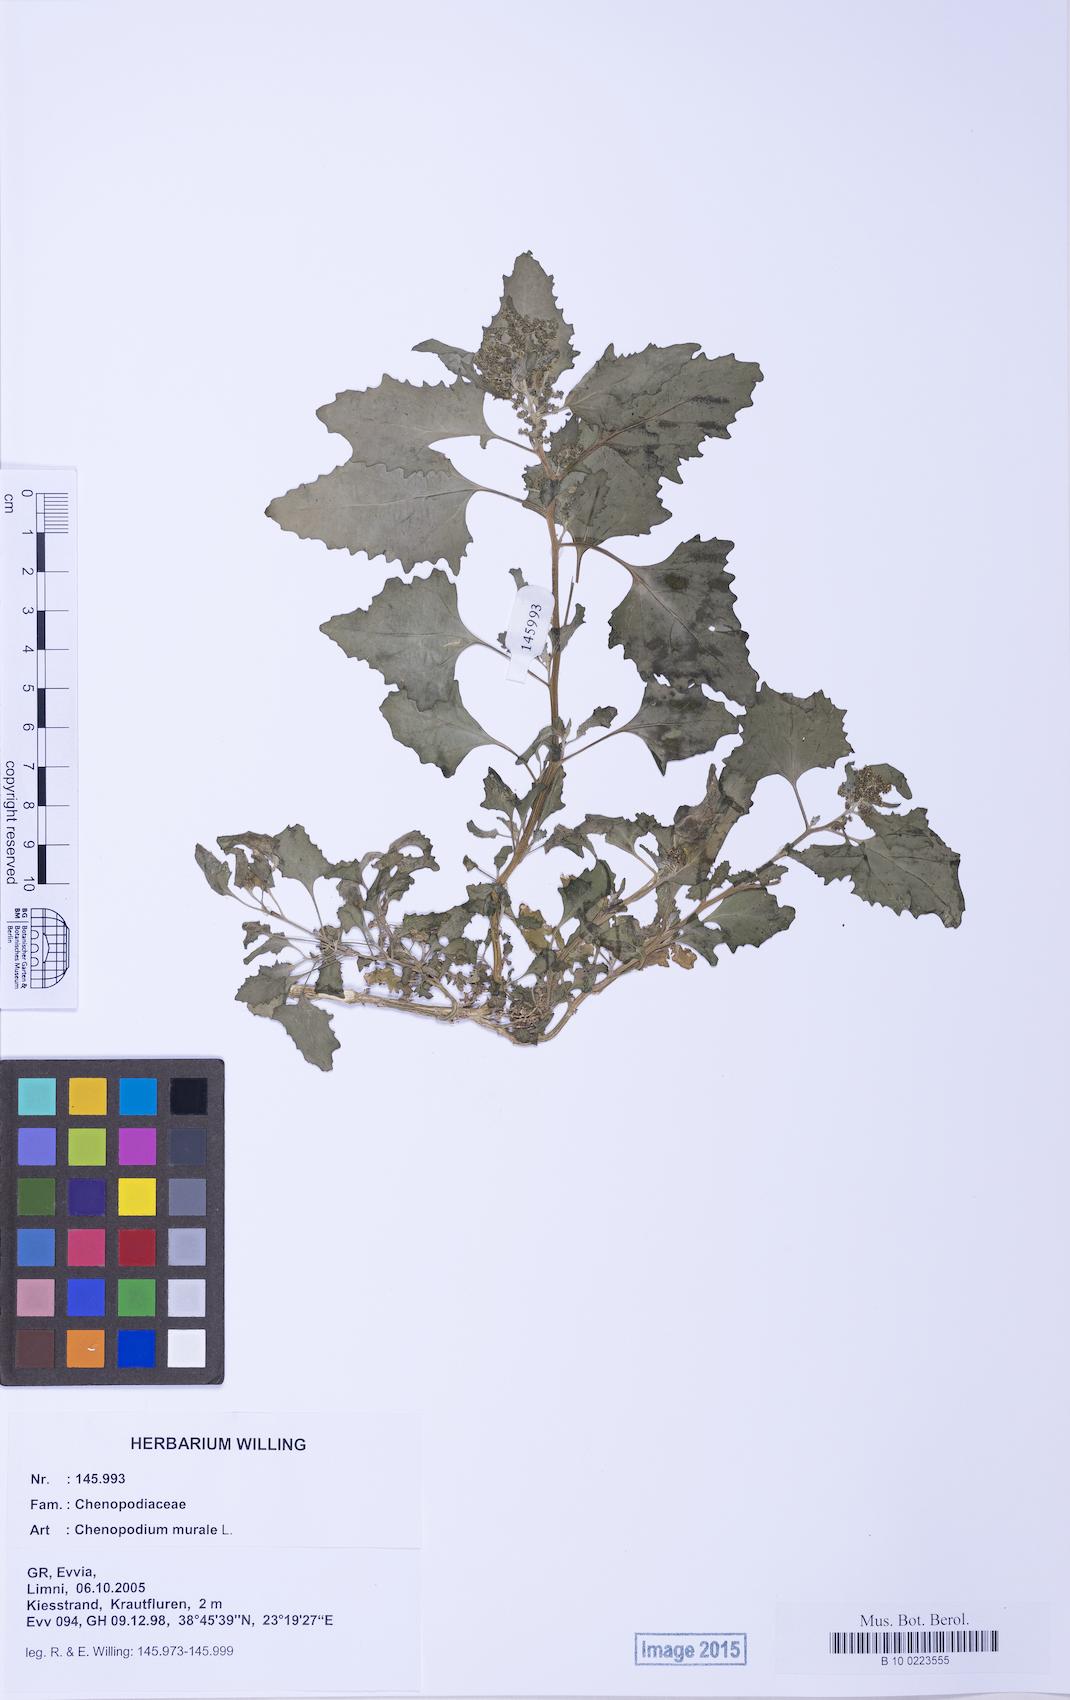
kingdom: Plantae
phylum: Tracheophyta
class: Magnoliopsida
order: Caryophyllales
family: Amaranthaceae
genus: Chenopodiastrum
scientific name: Chenopodiastrum murale
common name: Sowbane
